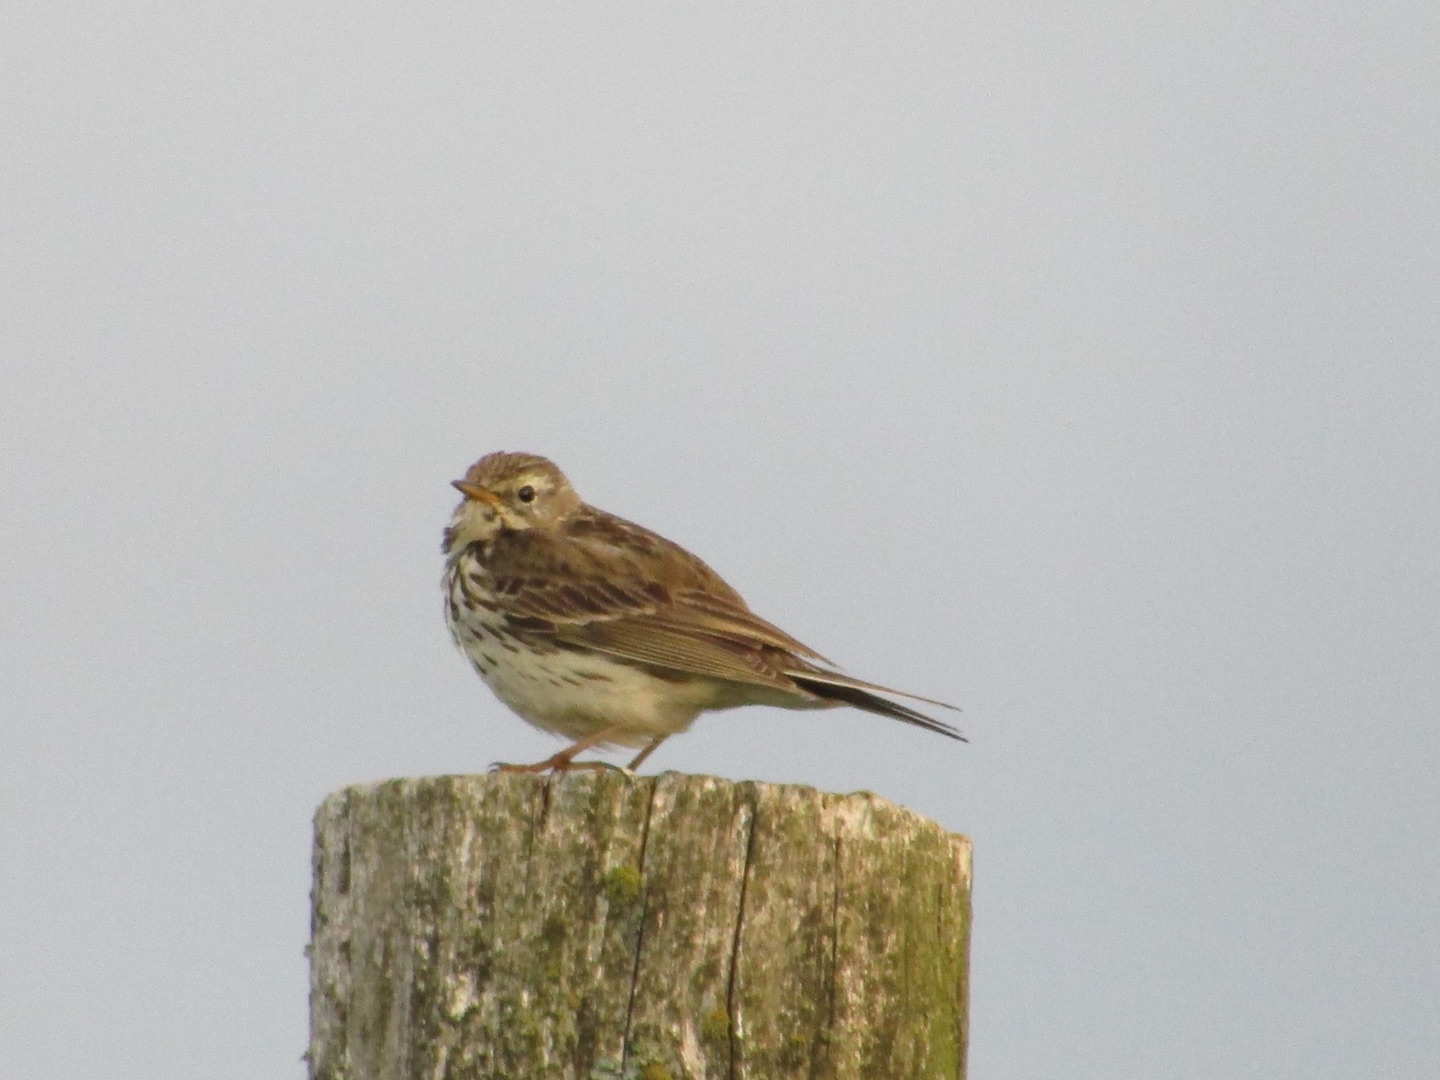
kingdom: Animalia
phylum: Chordata
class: Aves
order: Passeriformes
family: Motacillidae
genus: Anthus
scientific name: Anthus pratensis
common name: Engpiber
